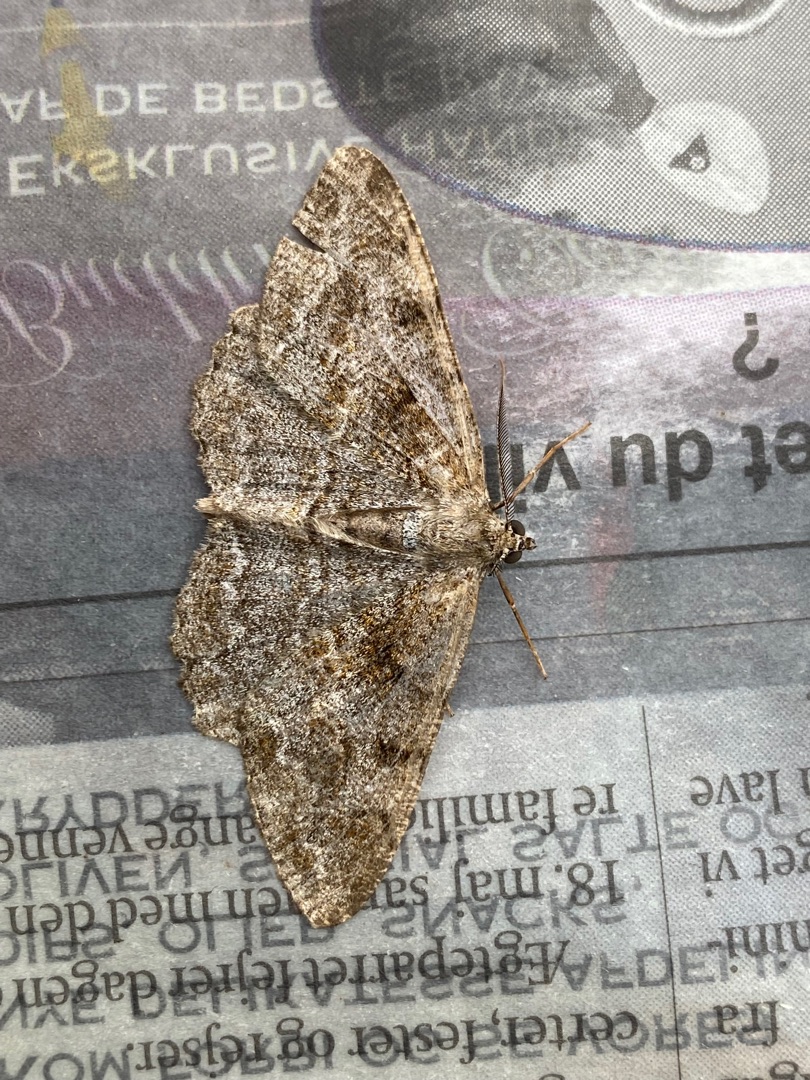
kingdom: Animalia
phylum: Arthropoda
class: Insecta
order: Lepidoptera
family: Geometridae
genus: Alcis
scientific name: Alcis repandata
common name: Almindelig barkmåler
